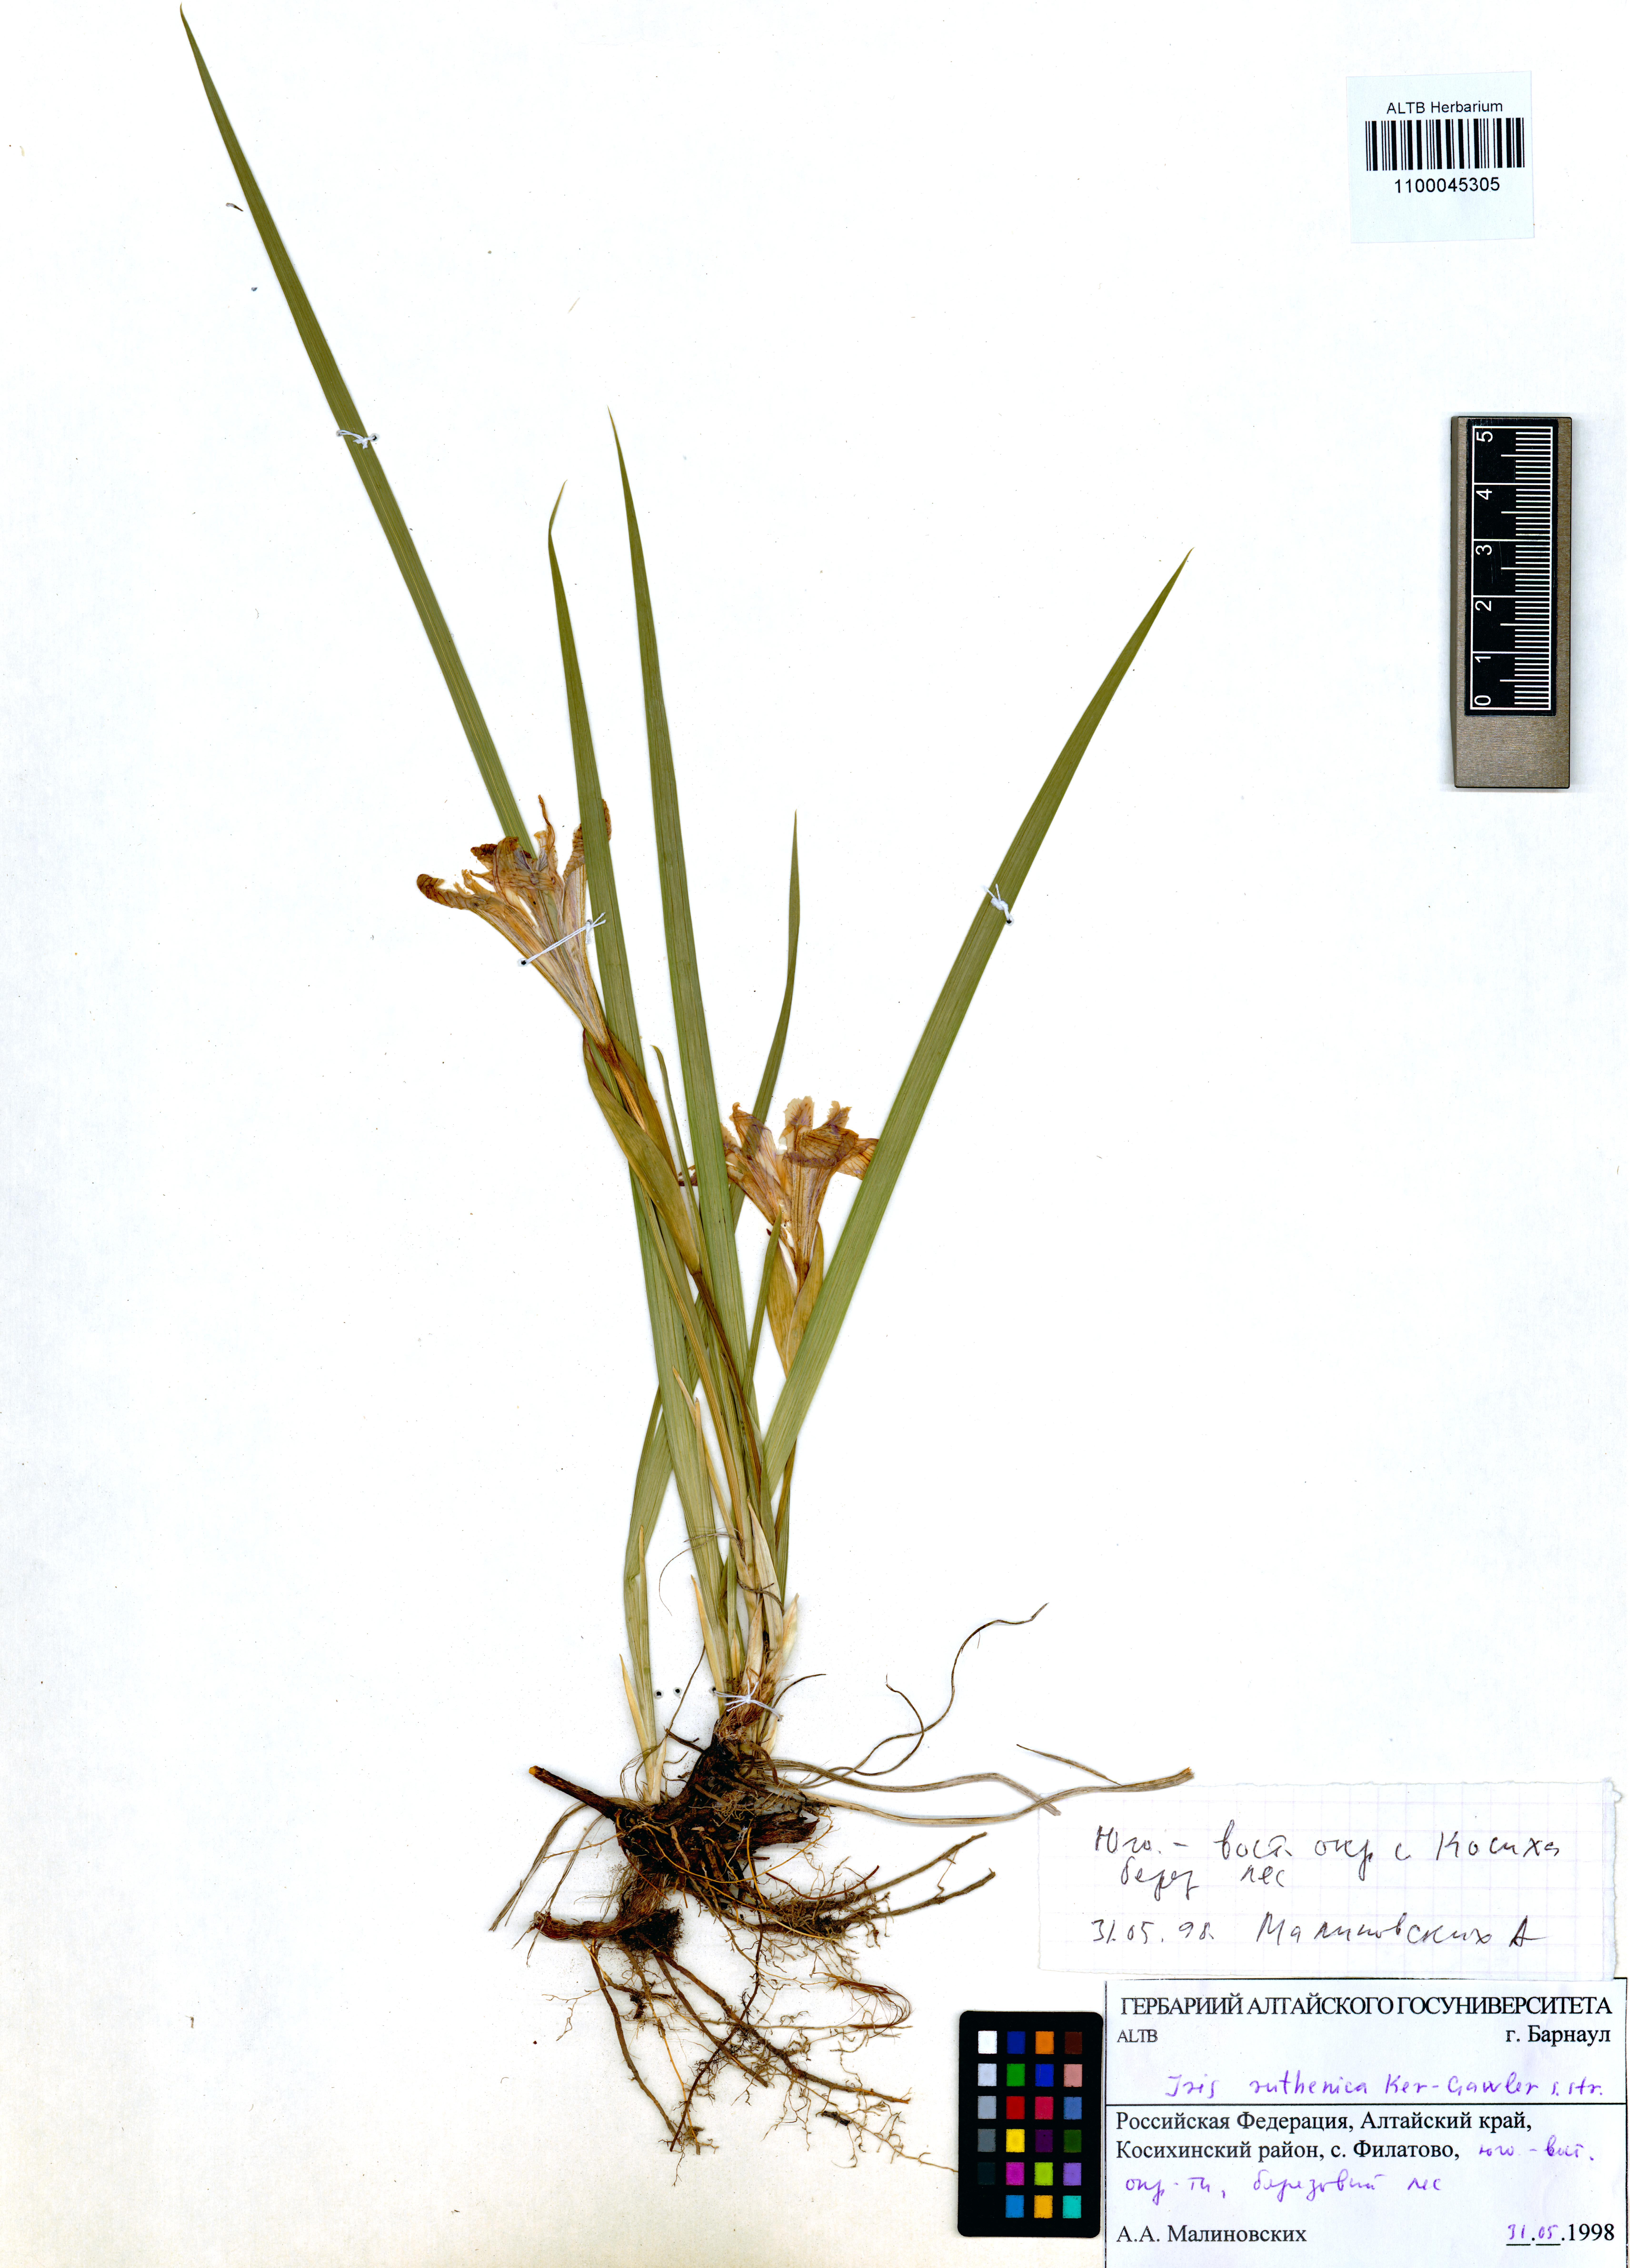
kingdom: Plantae
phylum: Tracheophyta
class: Liliopsida
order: Asparagales
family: Iridaceae
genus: Iris
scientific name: Iris ruthenica
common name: Purple-bract iris
